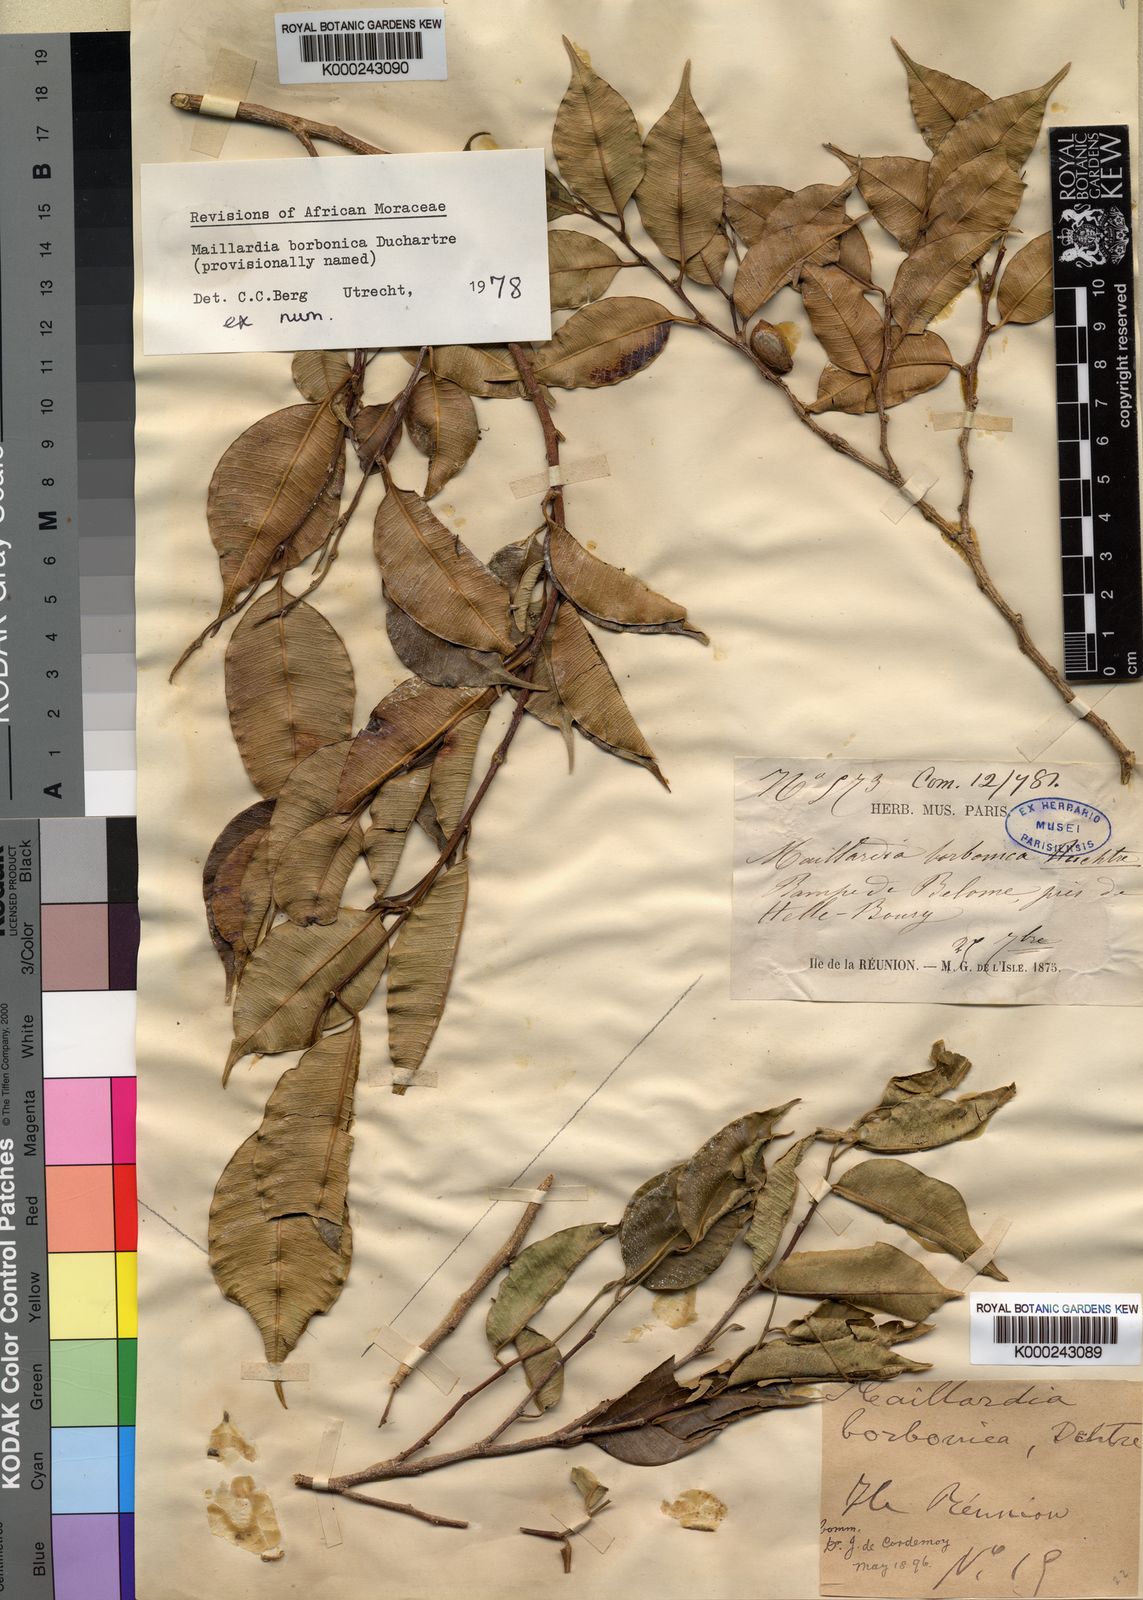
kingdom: Plantae
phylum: Tracheophyta
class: Magnoliopsida
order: Rosales
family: Moraceae
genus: Maillardia
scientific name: Maillardia borbonica
